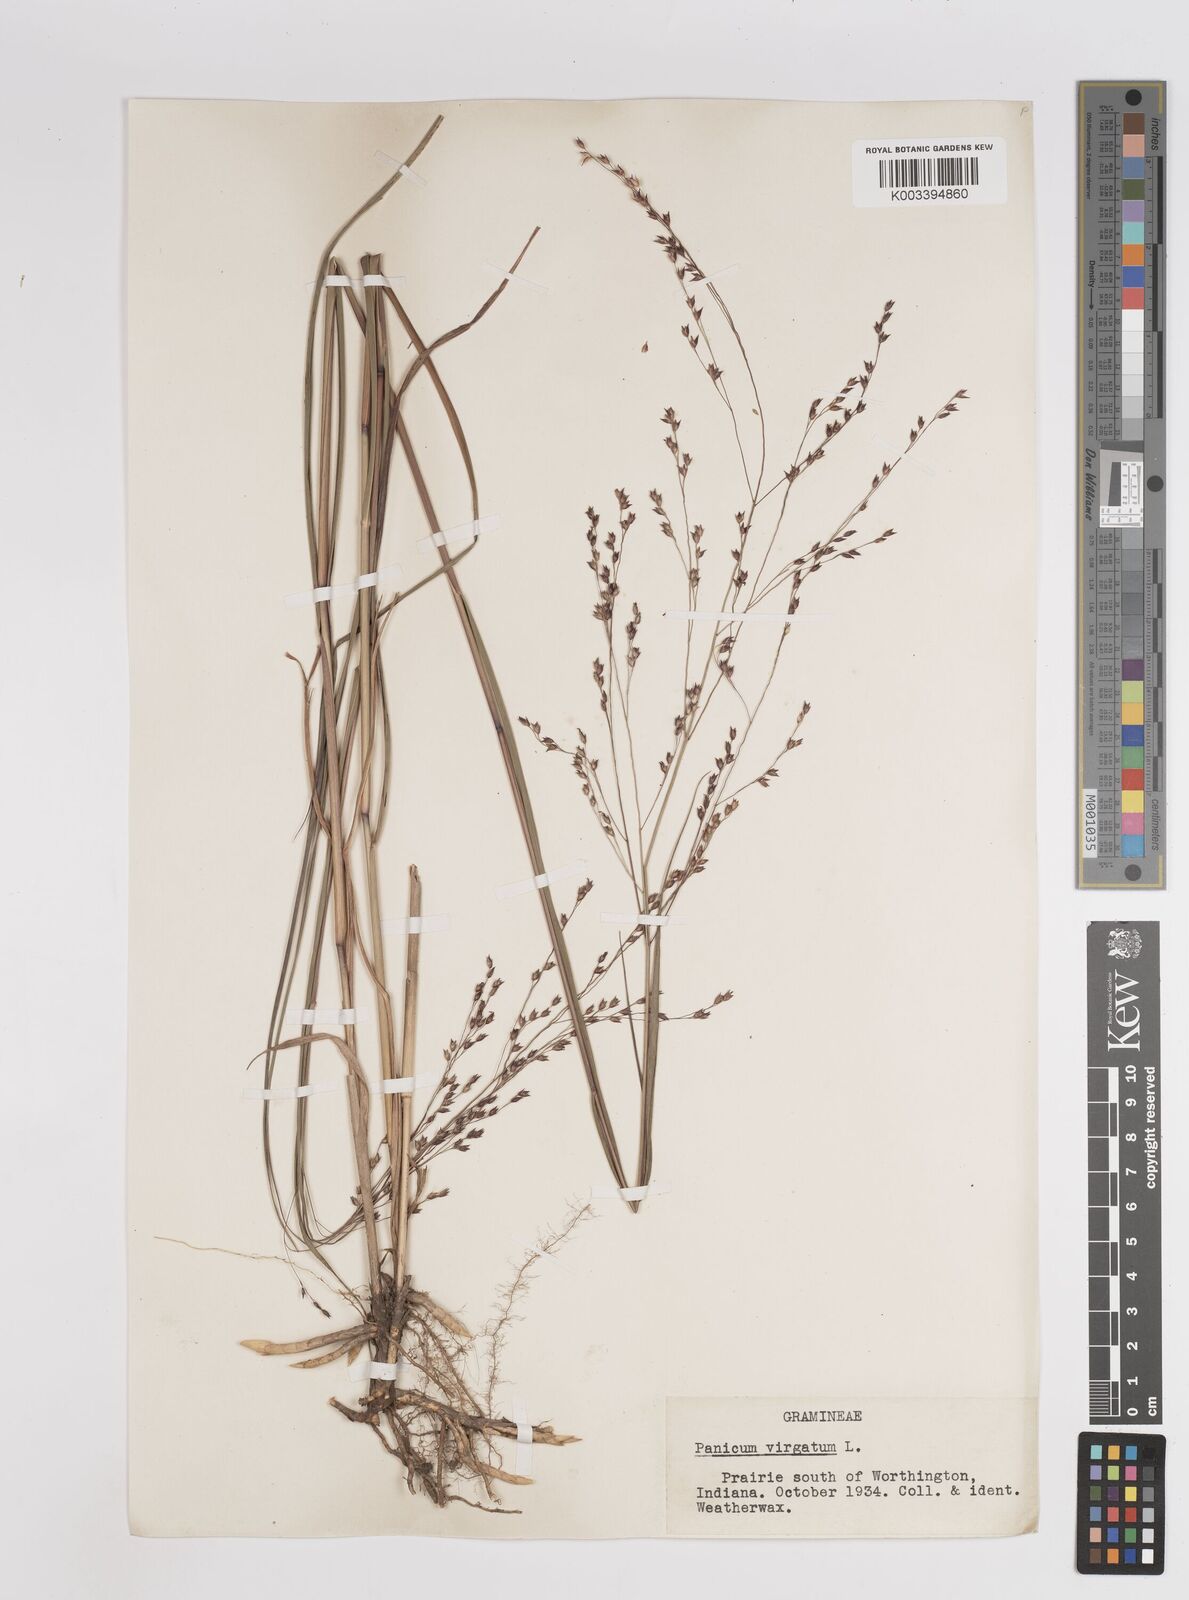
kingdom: Plantae
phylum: Tracheophyta
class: Liliopsida
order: Poales
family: Poaceae
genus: Panicum
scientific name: Panicum virgatum
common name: Switchgrass
